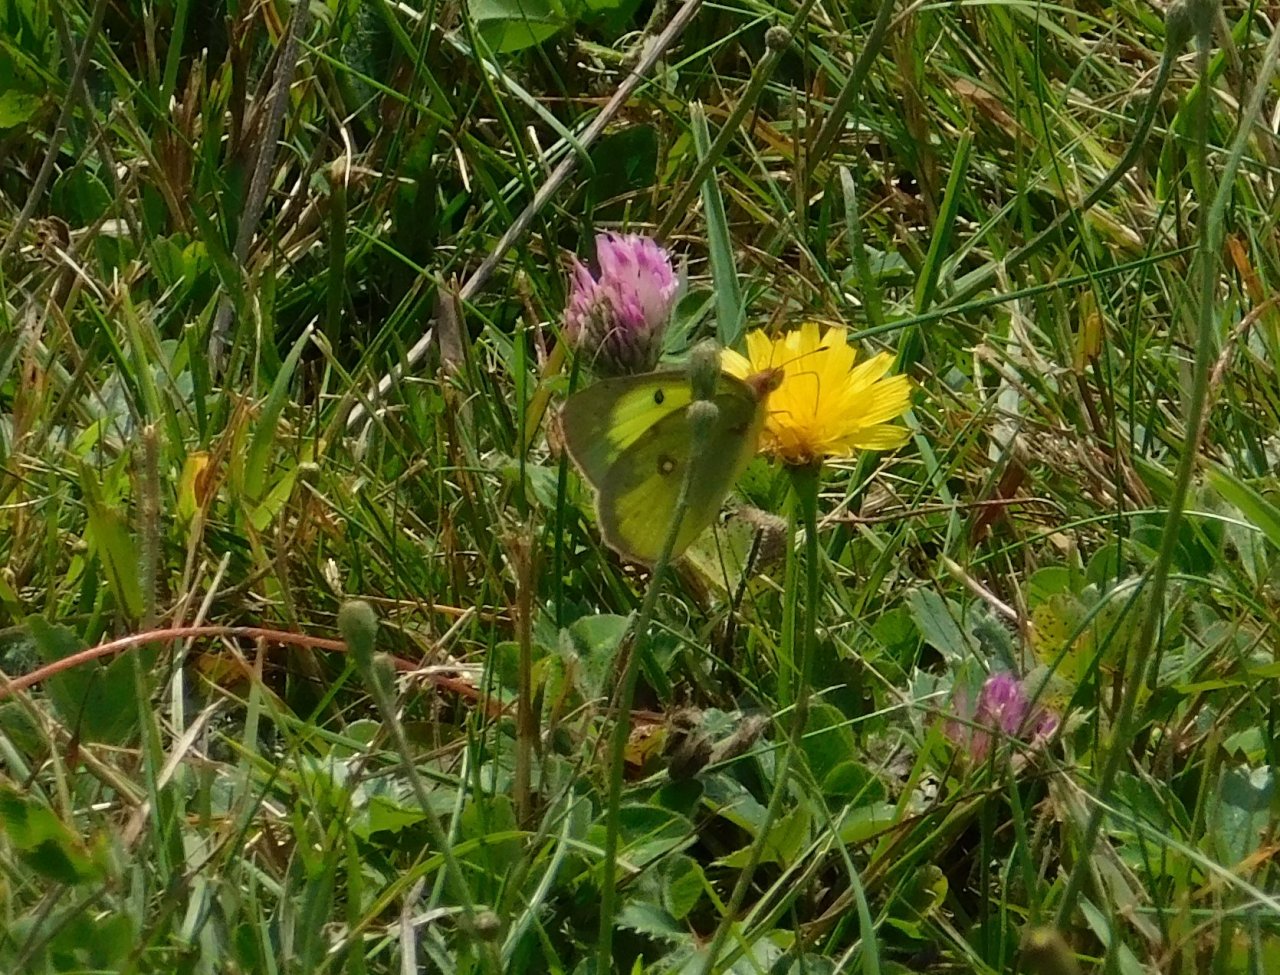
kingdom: Animalia
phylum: Arthropoda
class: Insecta
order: Lepidoptera
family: Pieridae
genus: Colias
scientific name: Colias philodice
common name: Clouded Sulphur
